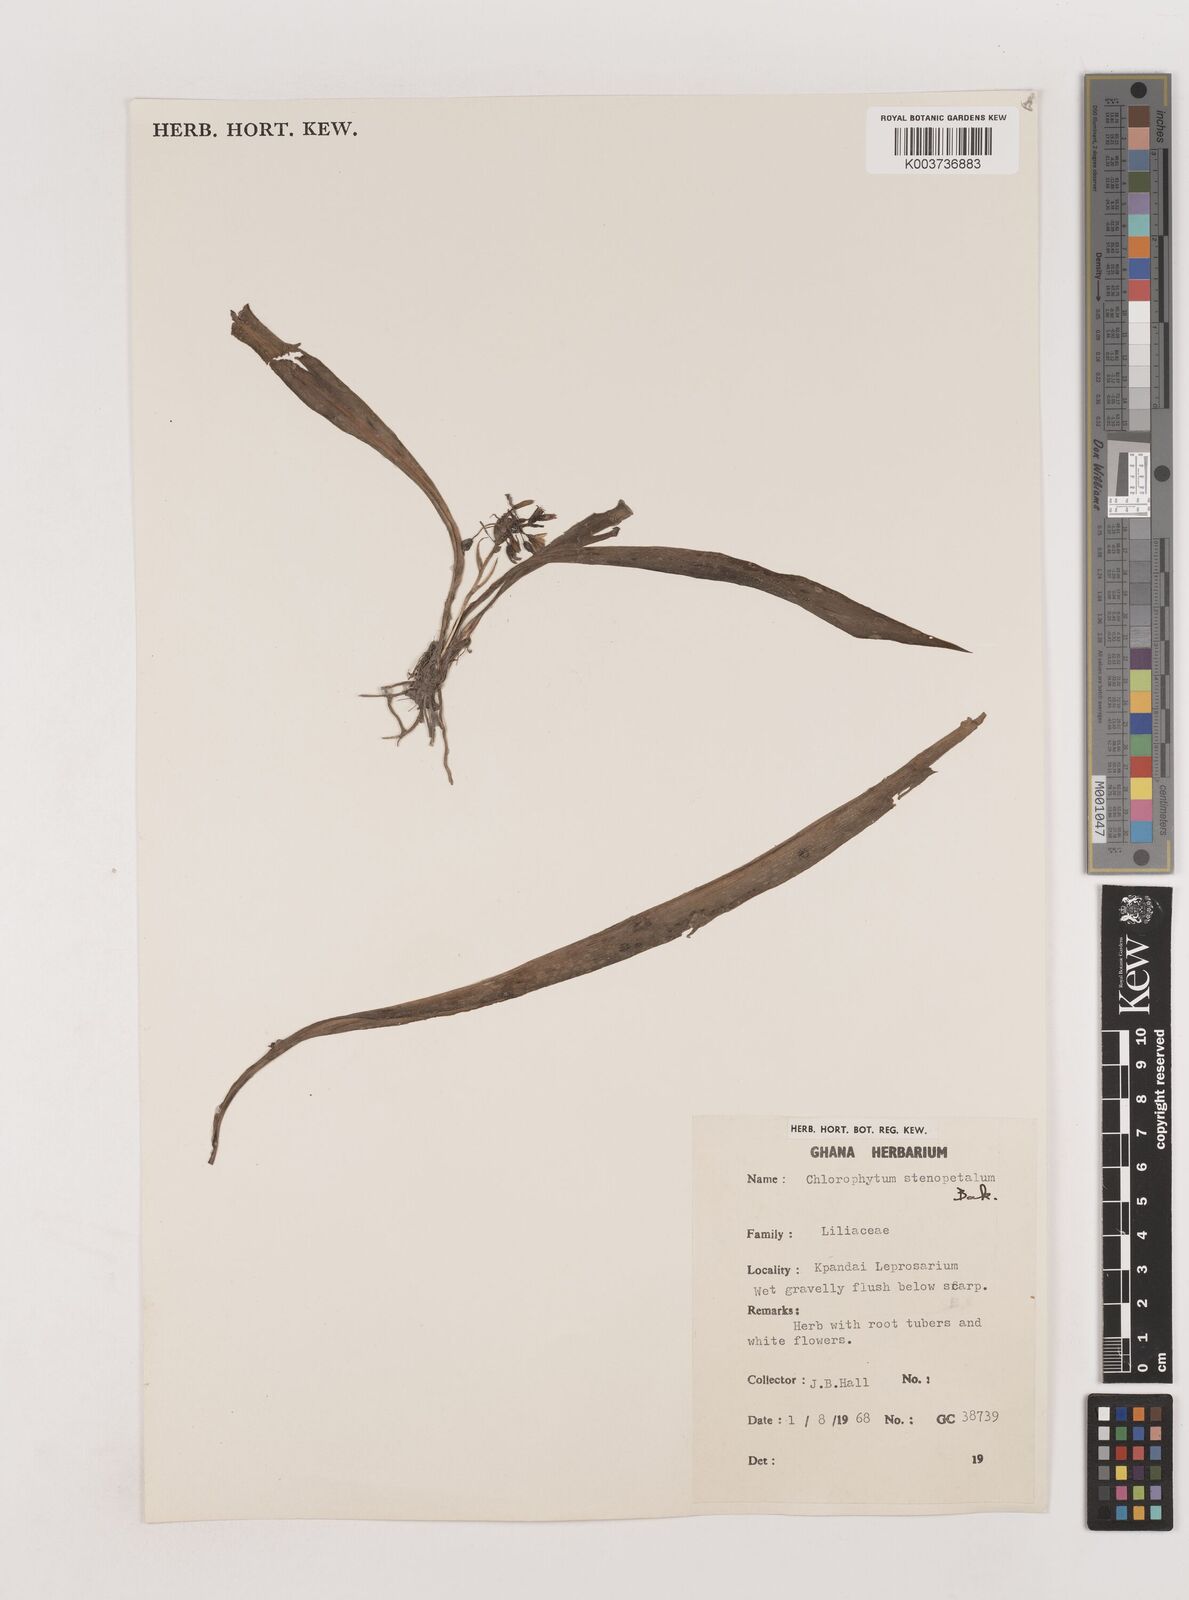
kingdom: Plantae
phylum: Tracheophyta
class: Liliopsida
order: Asparagales
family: Asparagaceae
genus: Chlorophytum
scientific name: Chlorophytum stenopetalum
